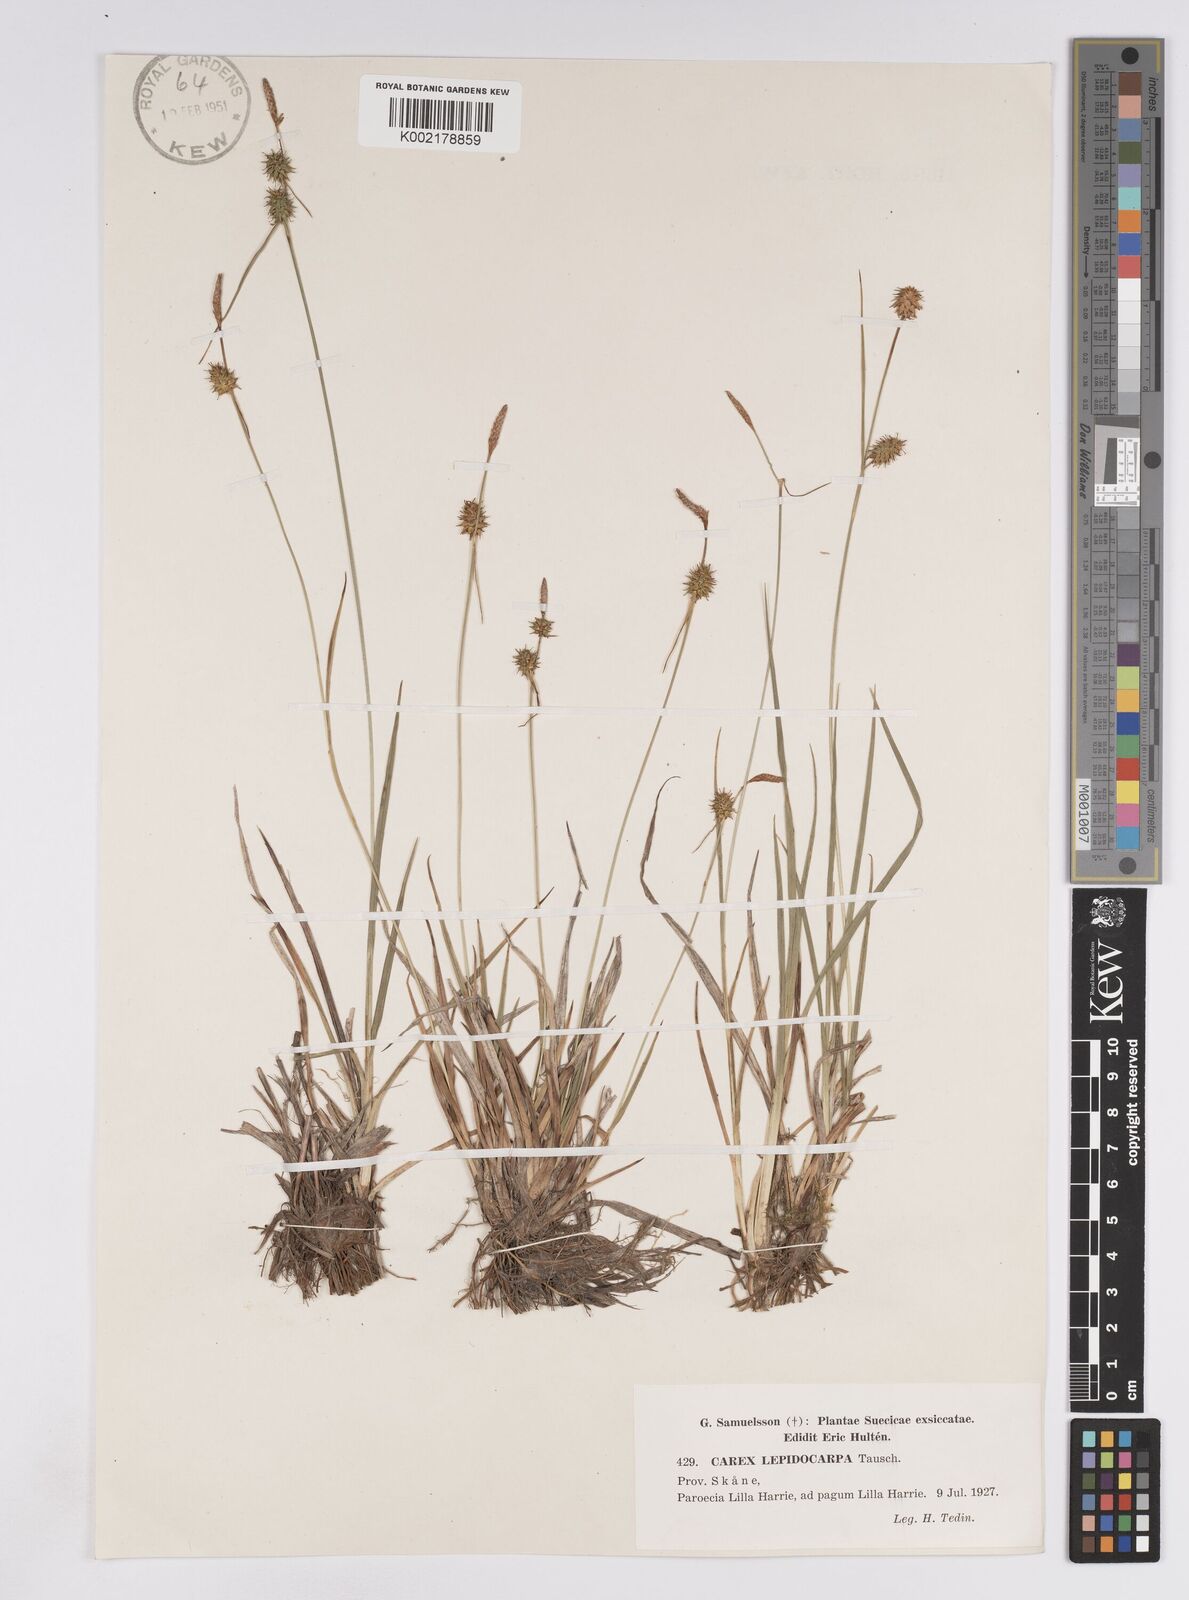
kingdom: Plantae
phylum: Tracheophyta
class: Liliopsida
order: Poales
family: Cyperaceae
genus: Carex
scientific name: Carex lepidocarpa
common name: Long-stalked yellow-sedge
